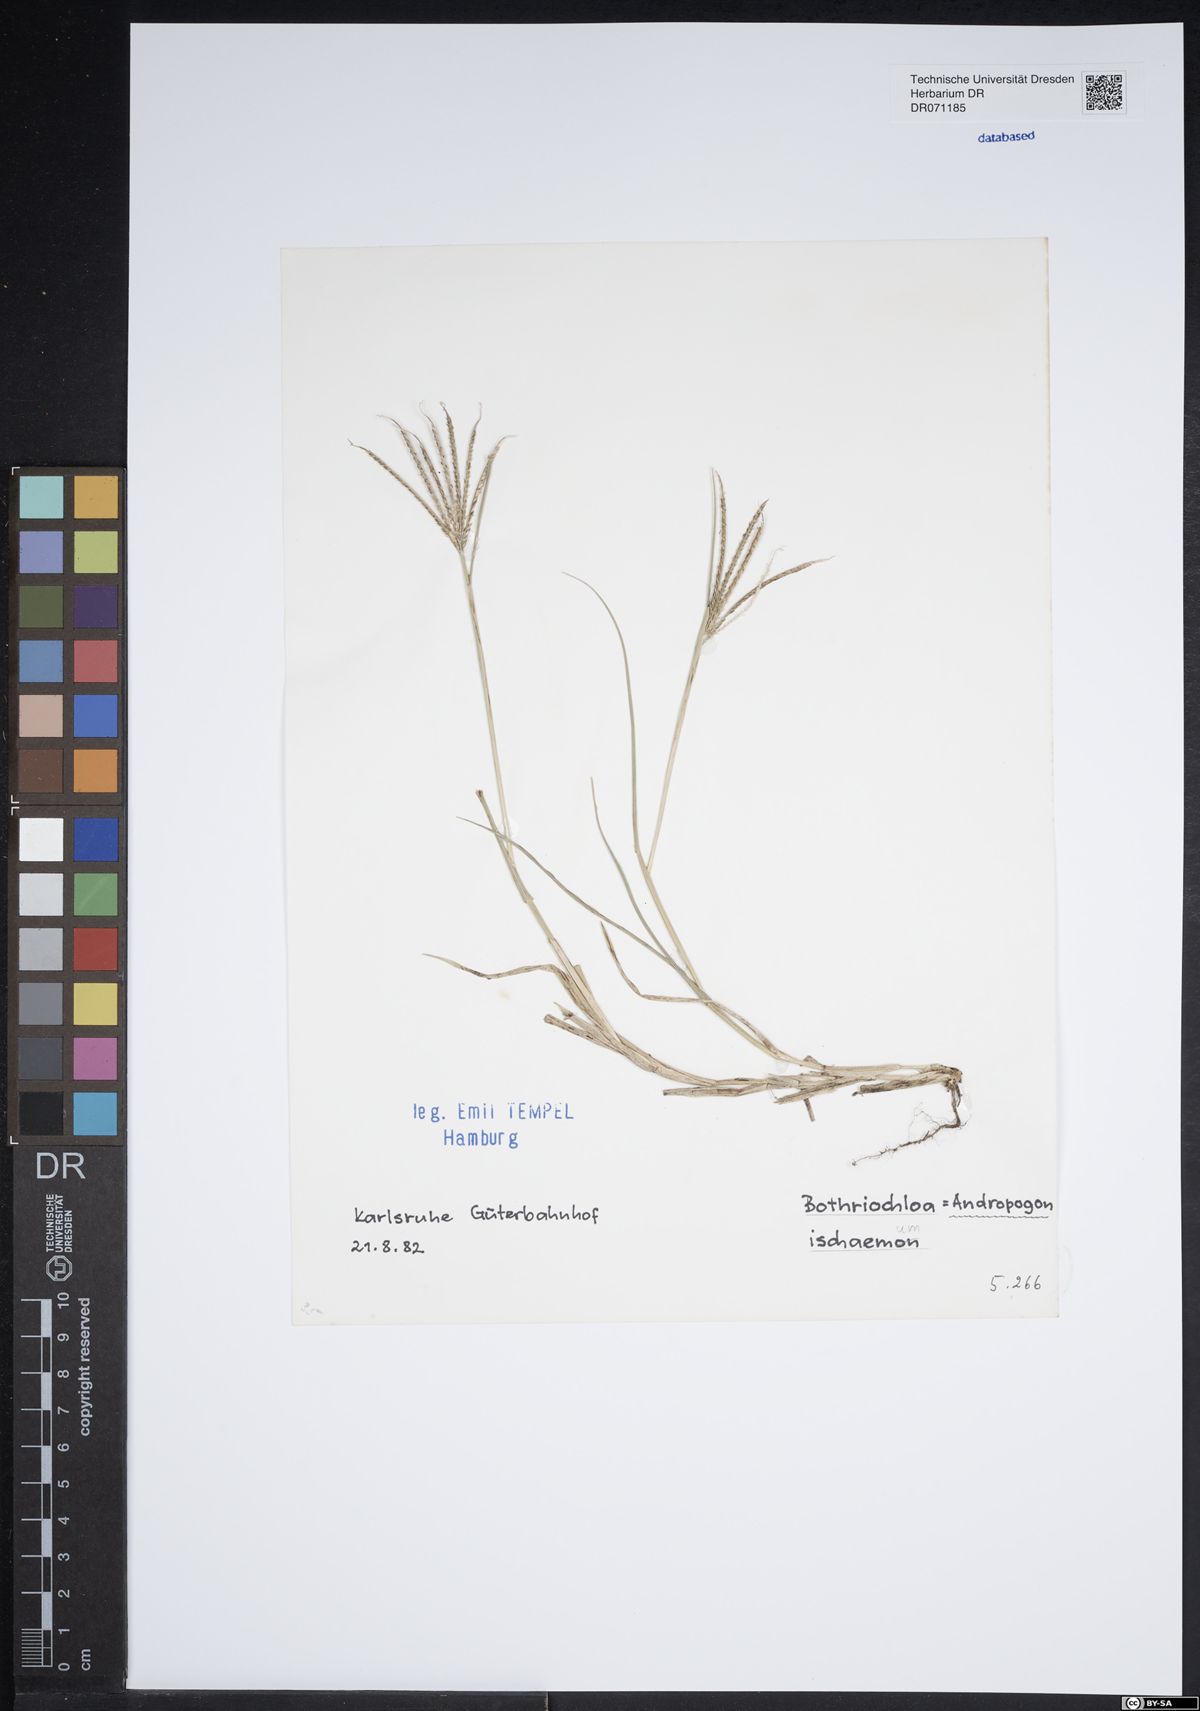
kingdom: Plantae
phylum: Tracheophyta
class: Liliopsida
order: Poales
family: Poaceae
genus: Bothriochloa
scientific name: Bothriochloa ischaemum
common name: Yellow bluestem
